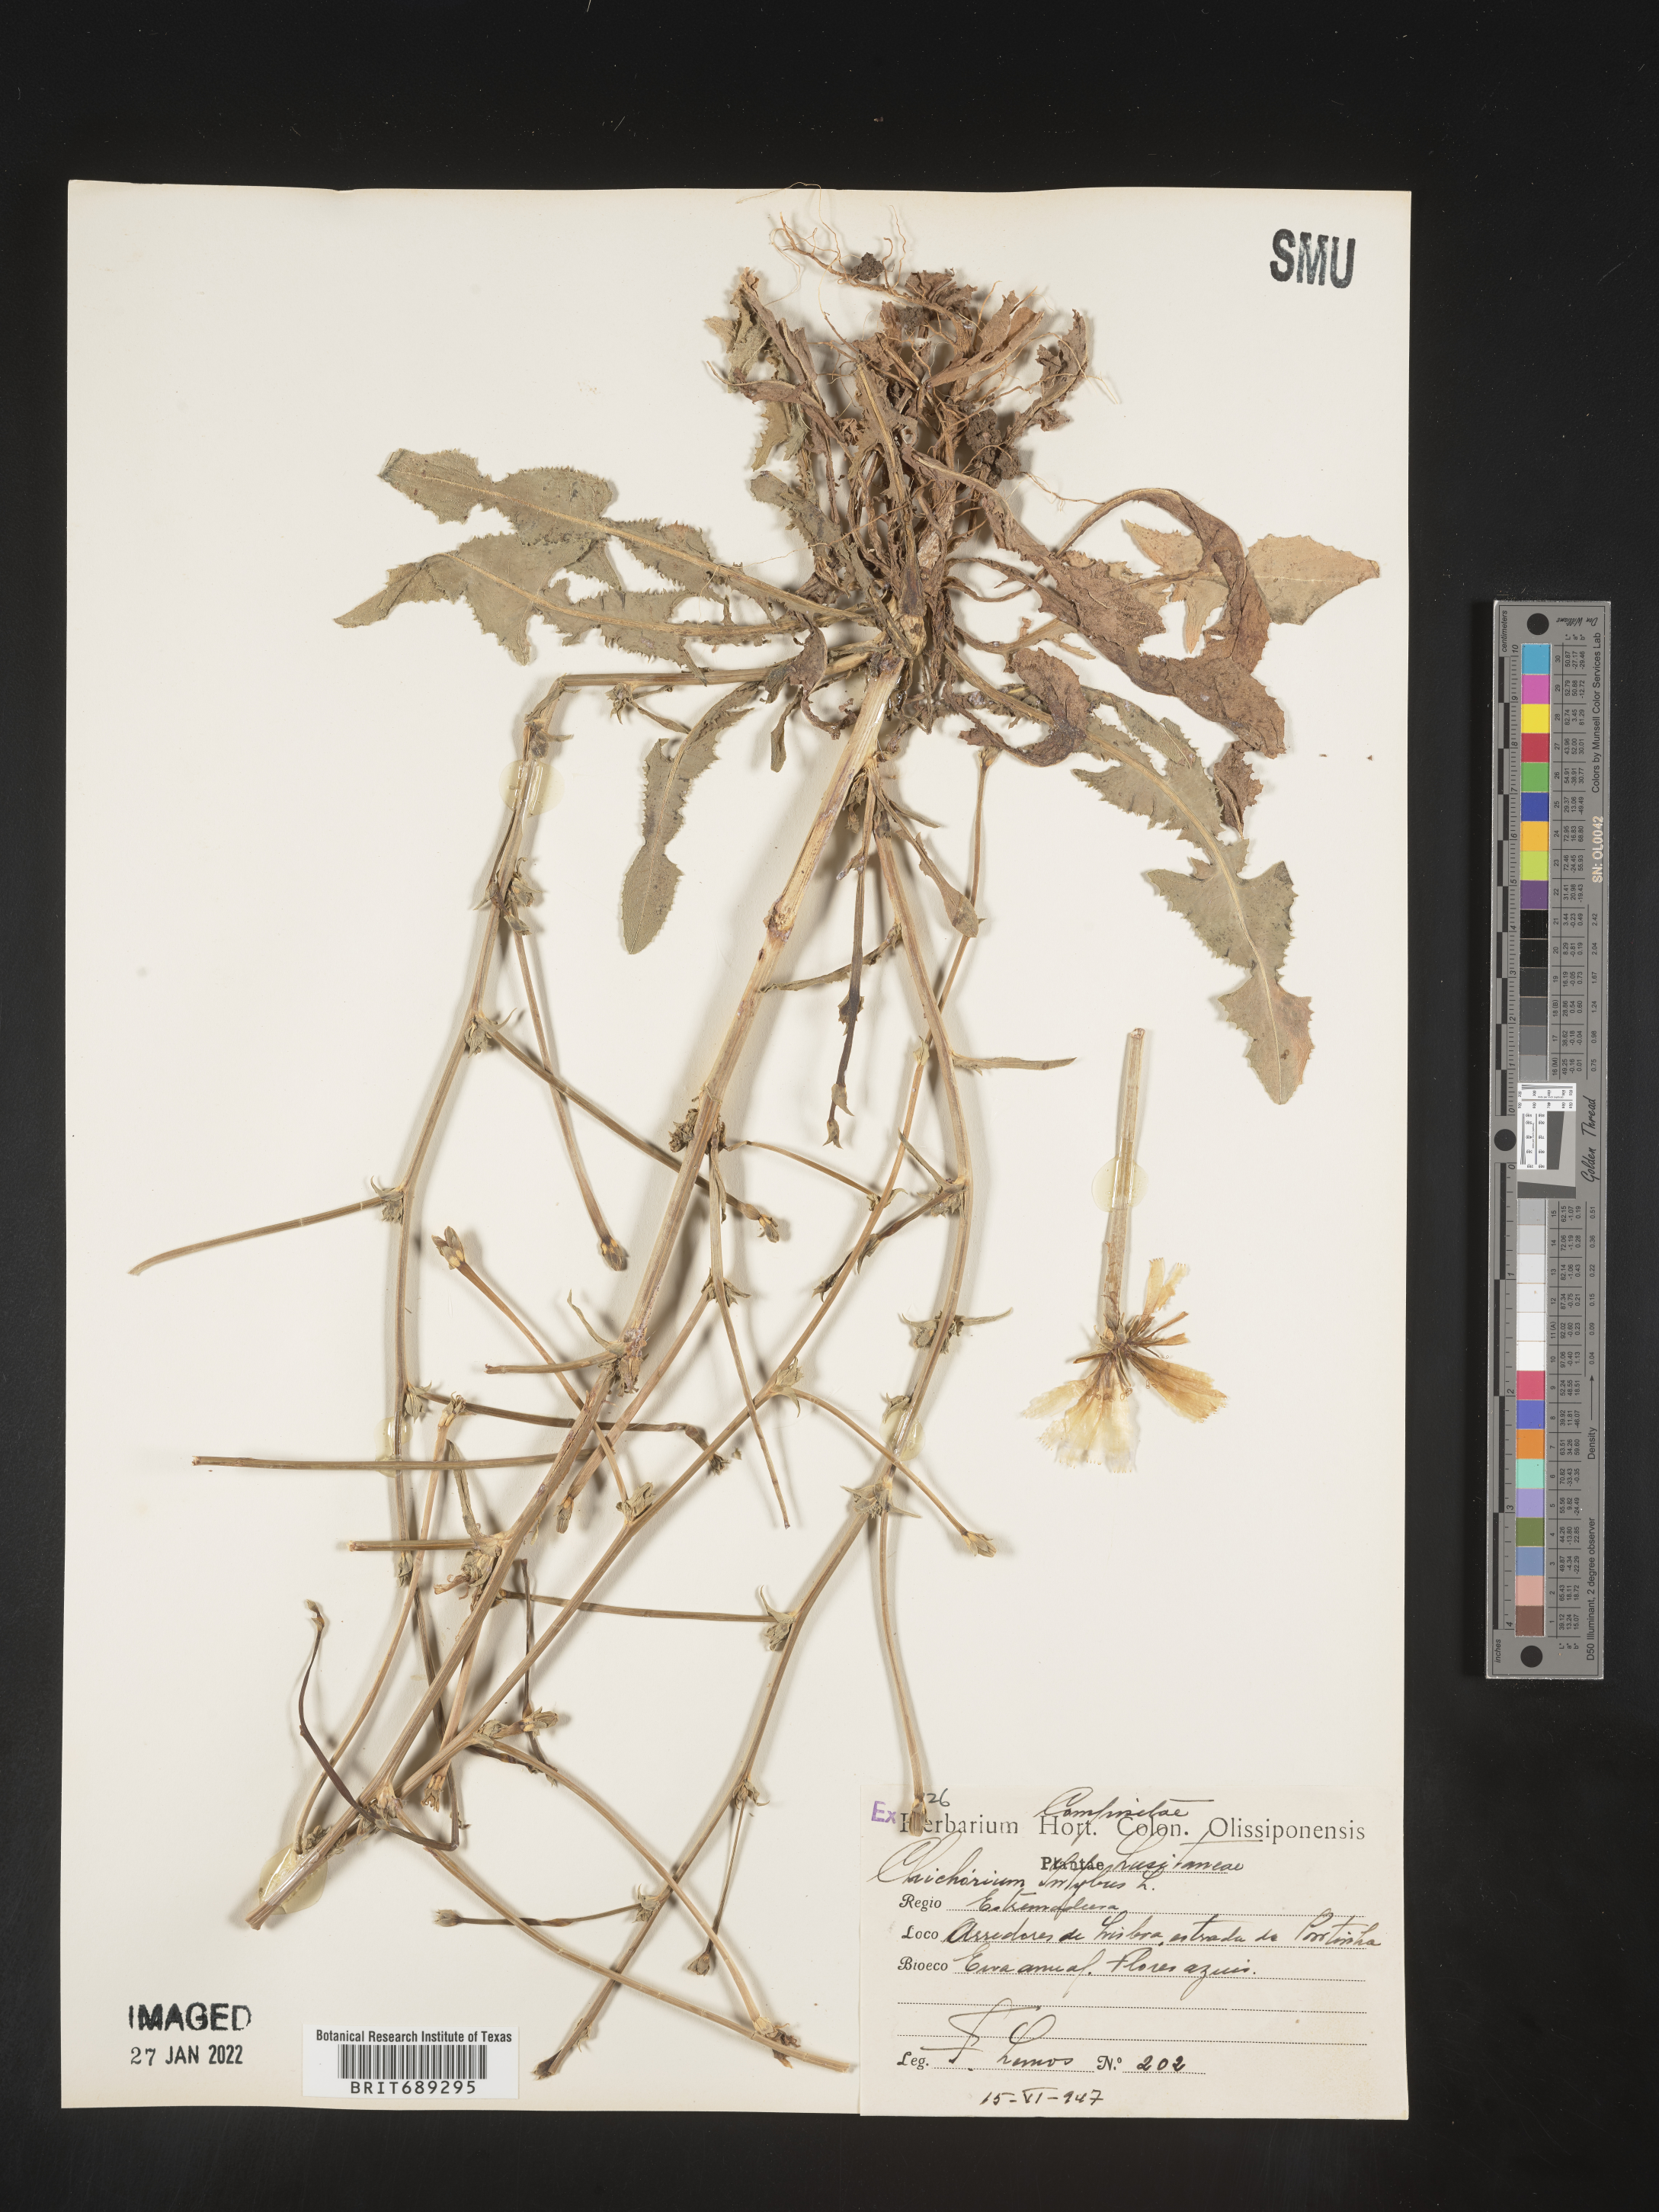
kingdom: Plantae
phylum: Tracheophyta
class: Magnoliopsida
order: Asterales
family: Asteraceae
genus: Cichorium
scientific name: Cichorium
